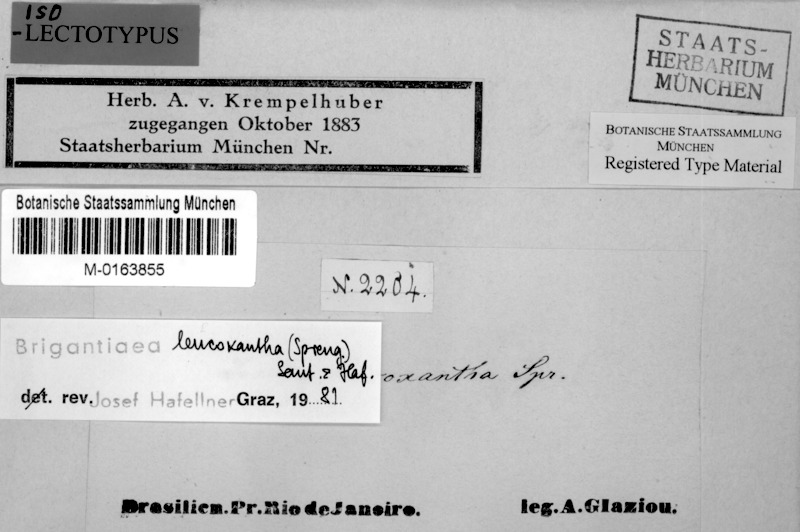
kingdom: Fungi
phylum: Ascomycota
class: Lecanoromycetes
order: Teloschistales
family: Brigantiaeaceae
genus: Brigantiaea
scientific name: Brigantiaea leucoxantha
